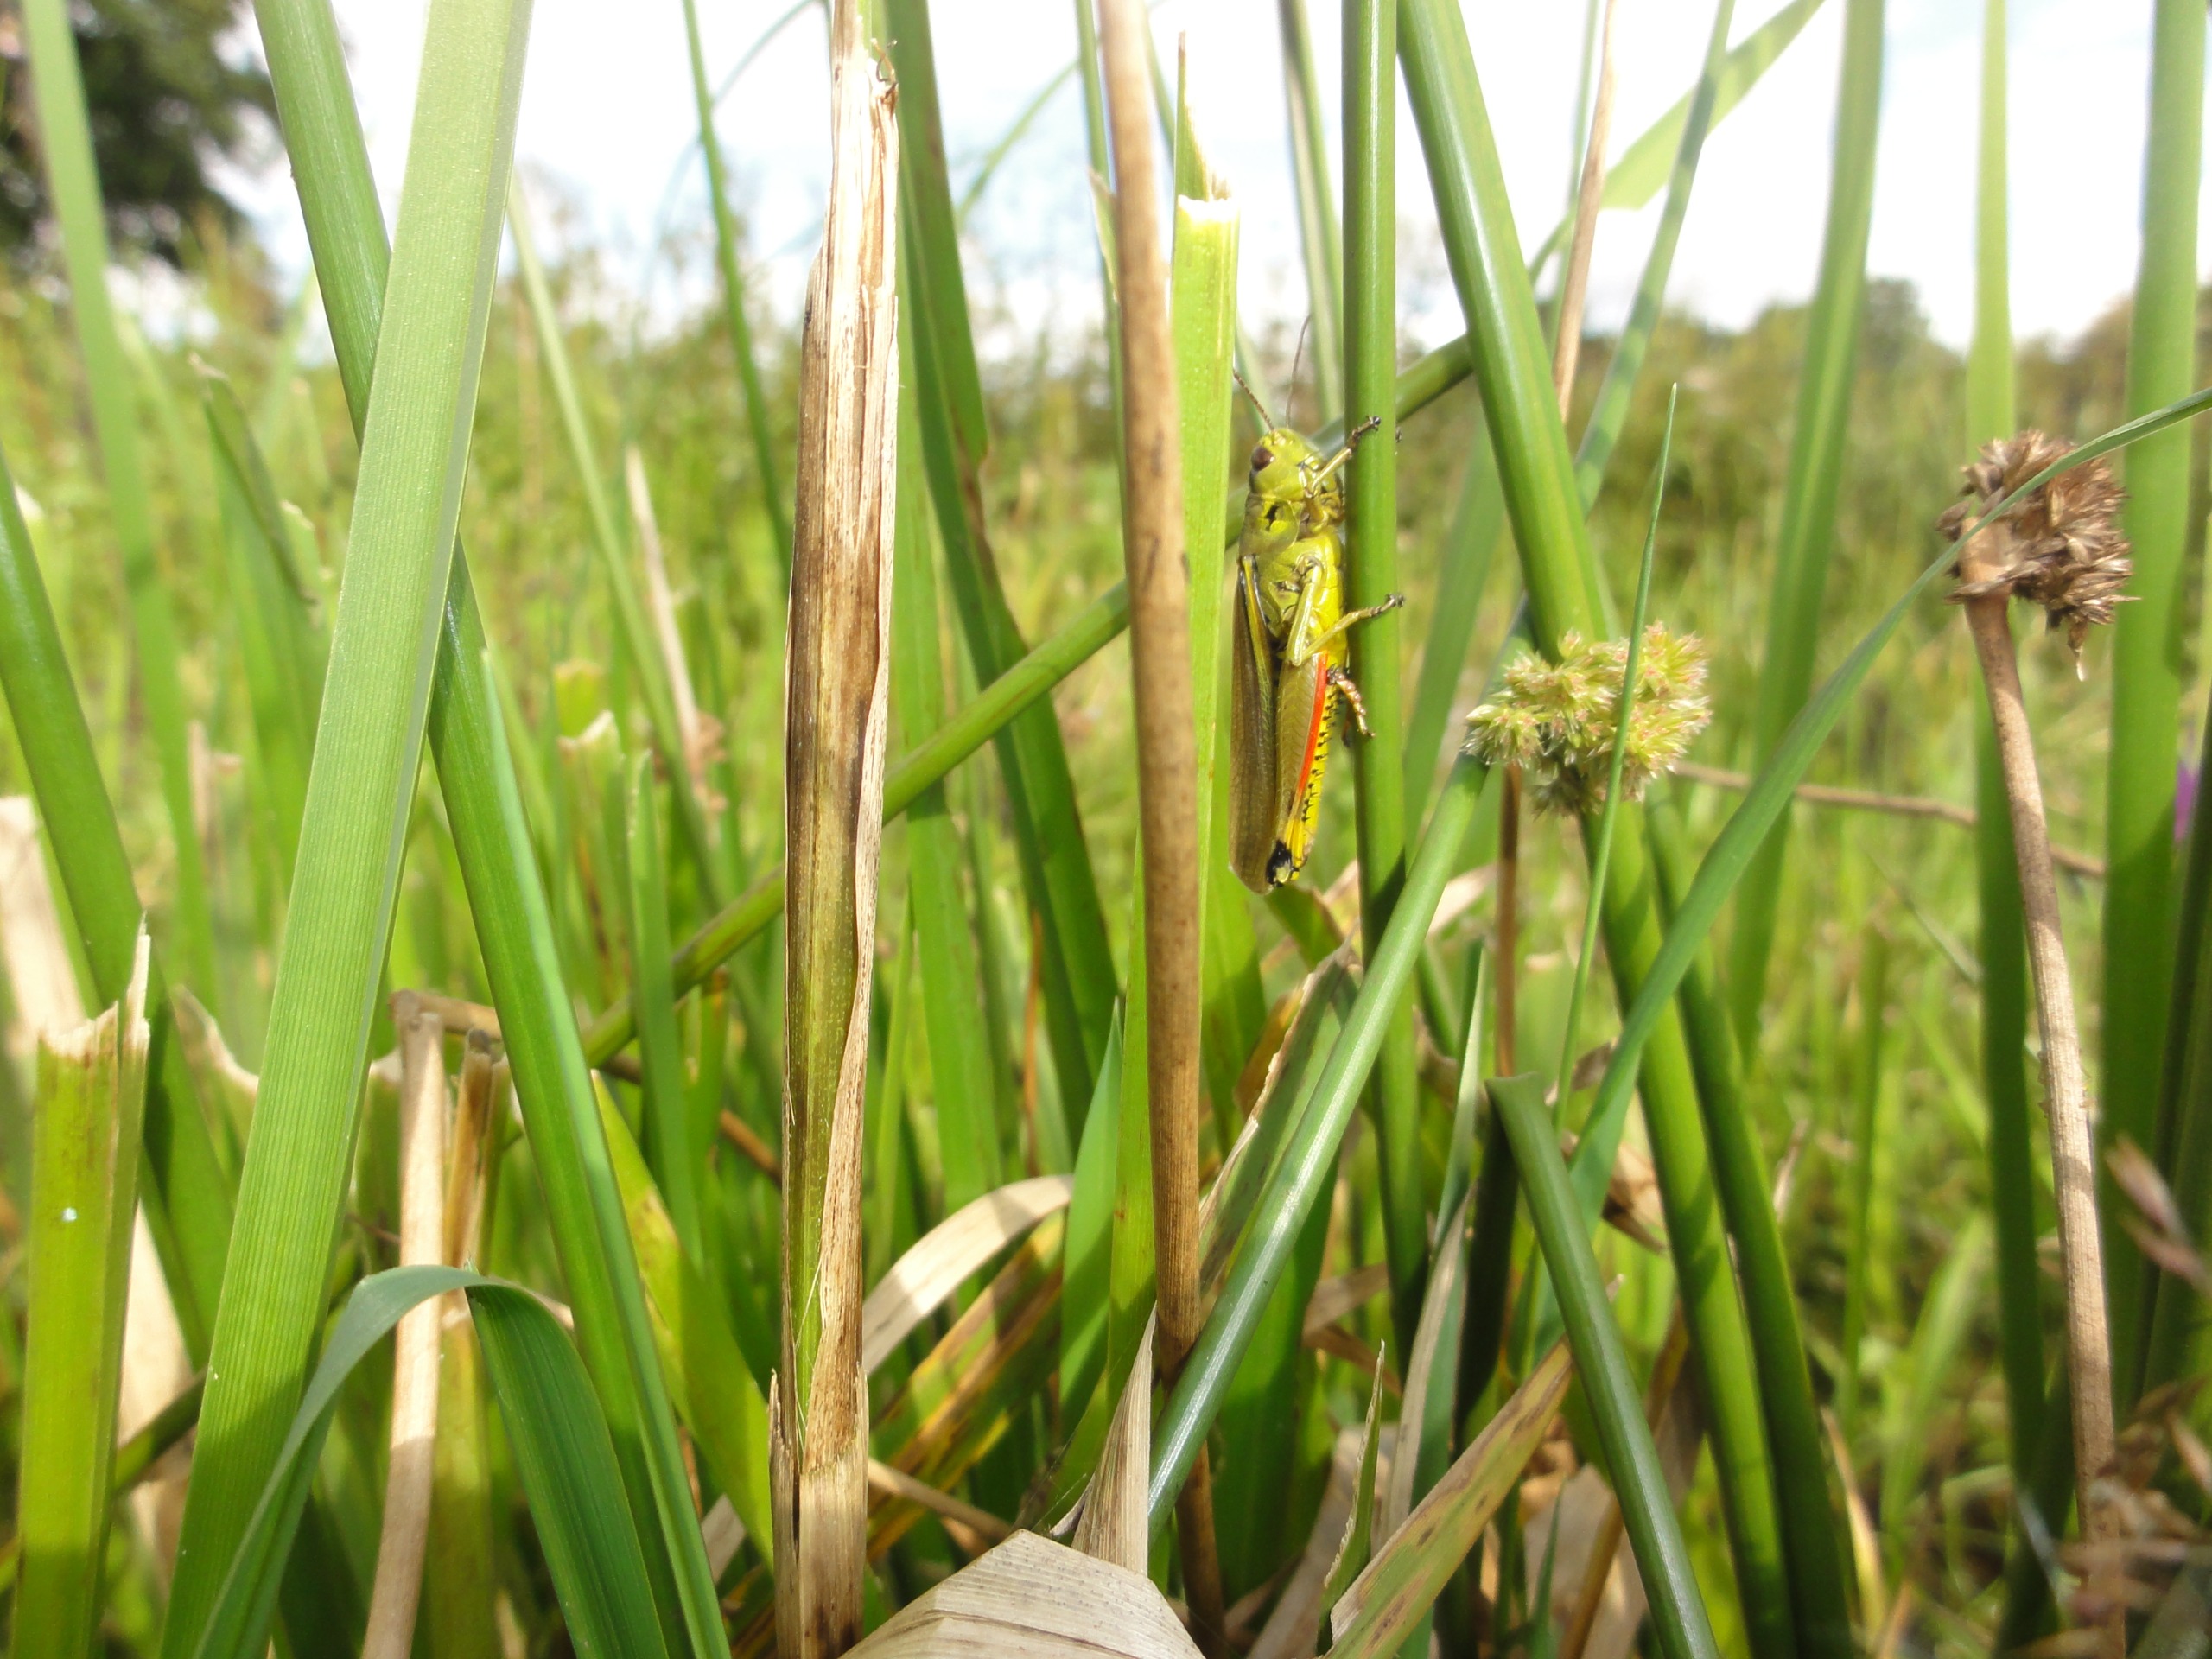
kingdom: Animalia
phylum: Arthropoda
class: Insecta
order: Orthoptera
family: Acrididae
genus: Stethophyma
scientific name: Stethophyma grossum
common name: Sumpgræshoppe
